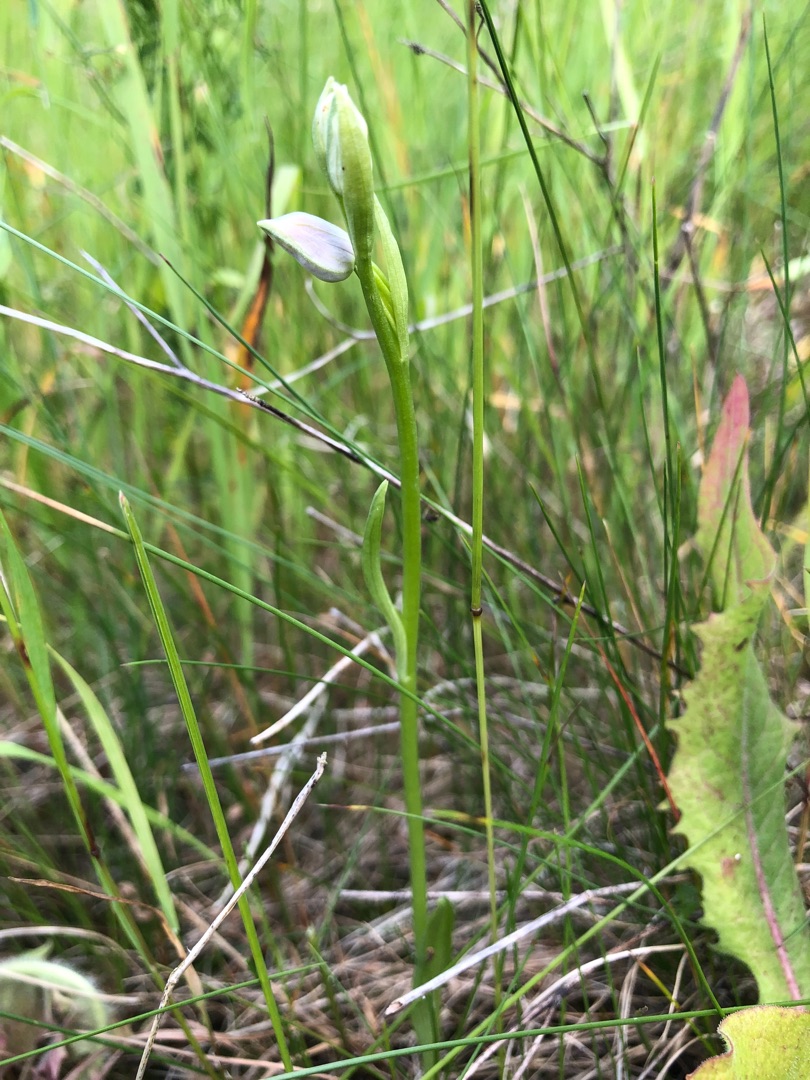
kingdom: Plantae
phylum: Tracheophyta
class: Liliopsida
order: Asparagales
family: Orchidaceae
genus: Ophrys
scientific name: Ophrys apifera
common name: Biblomst
